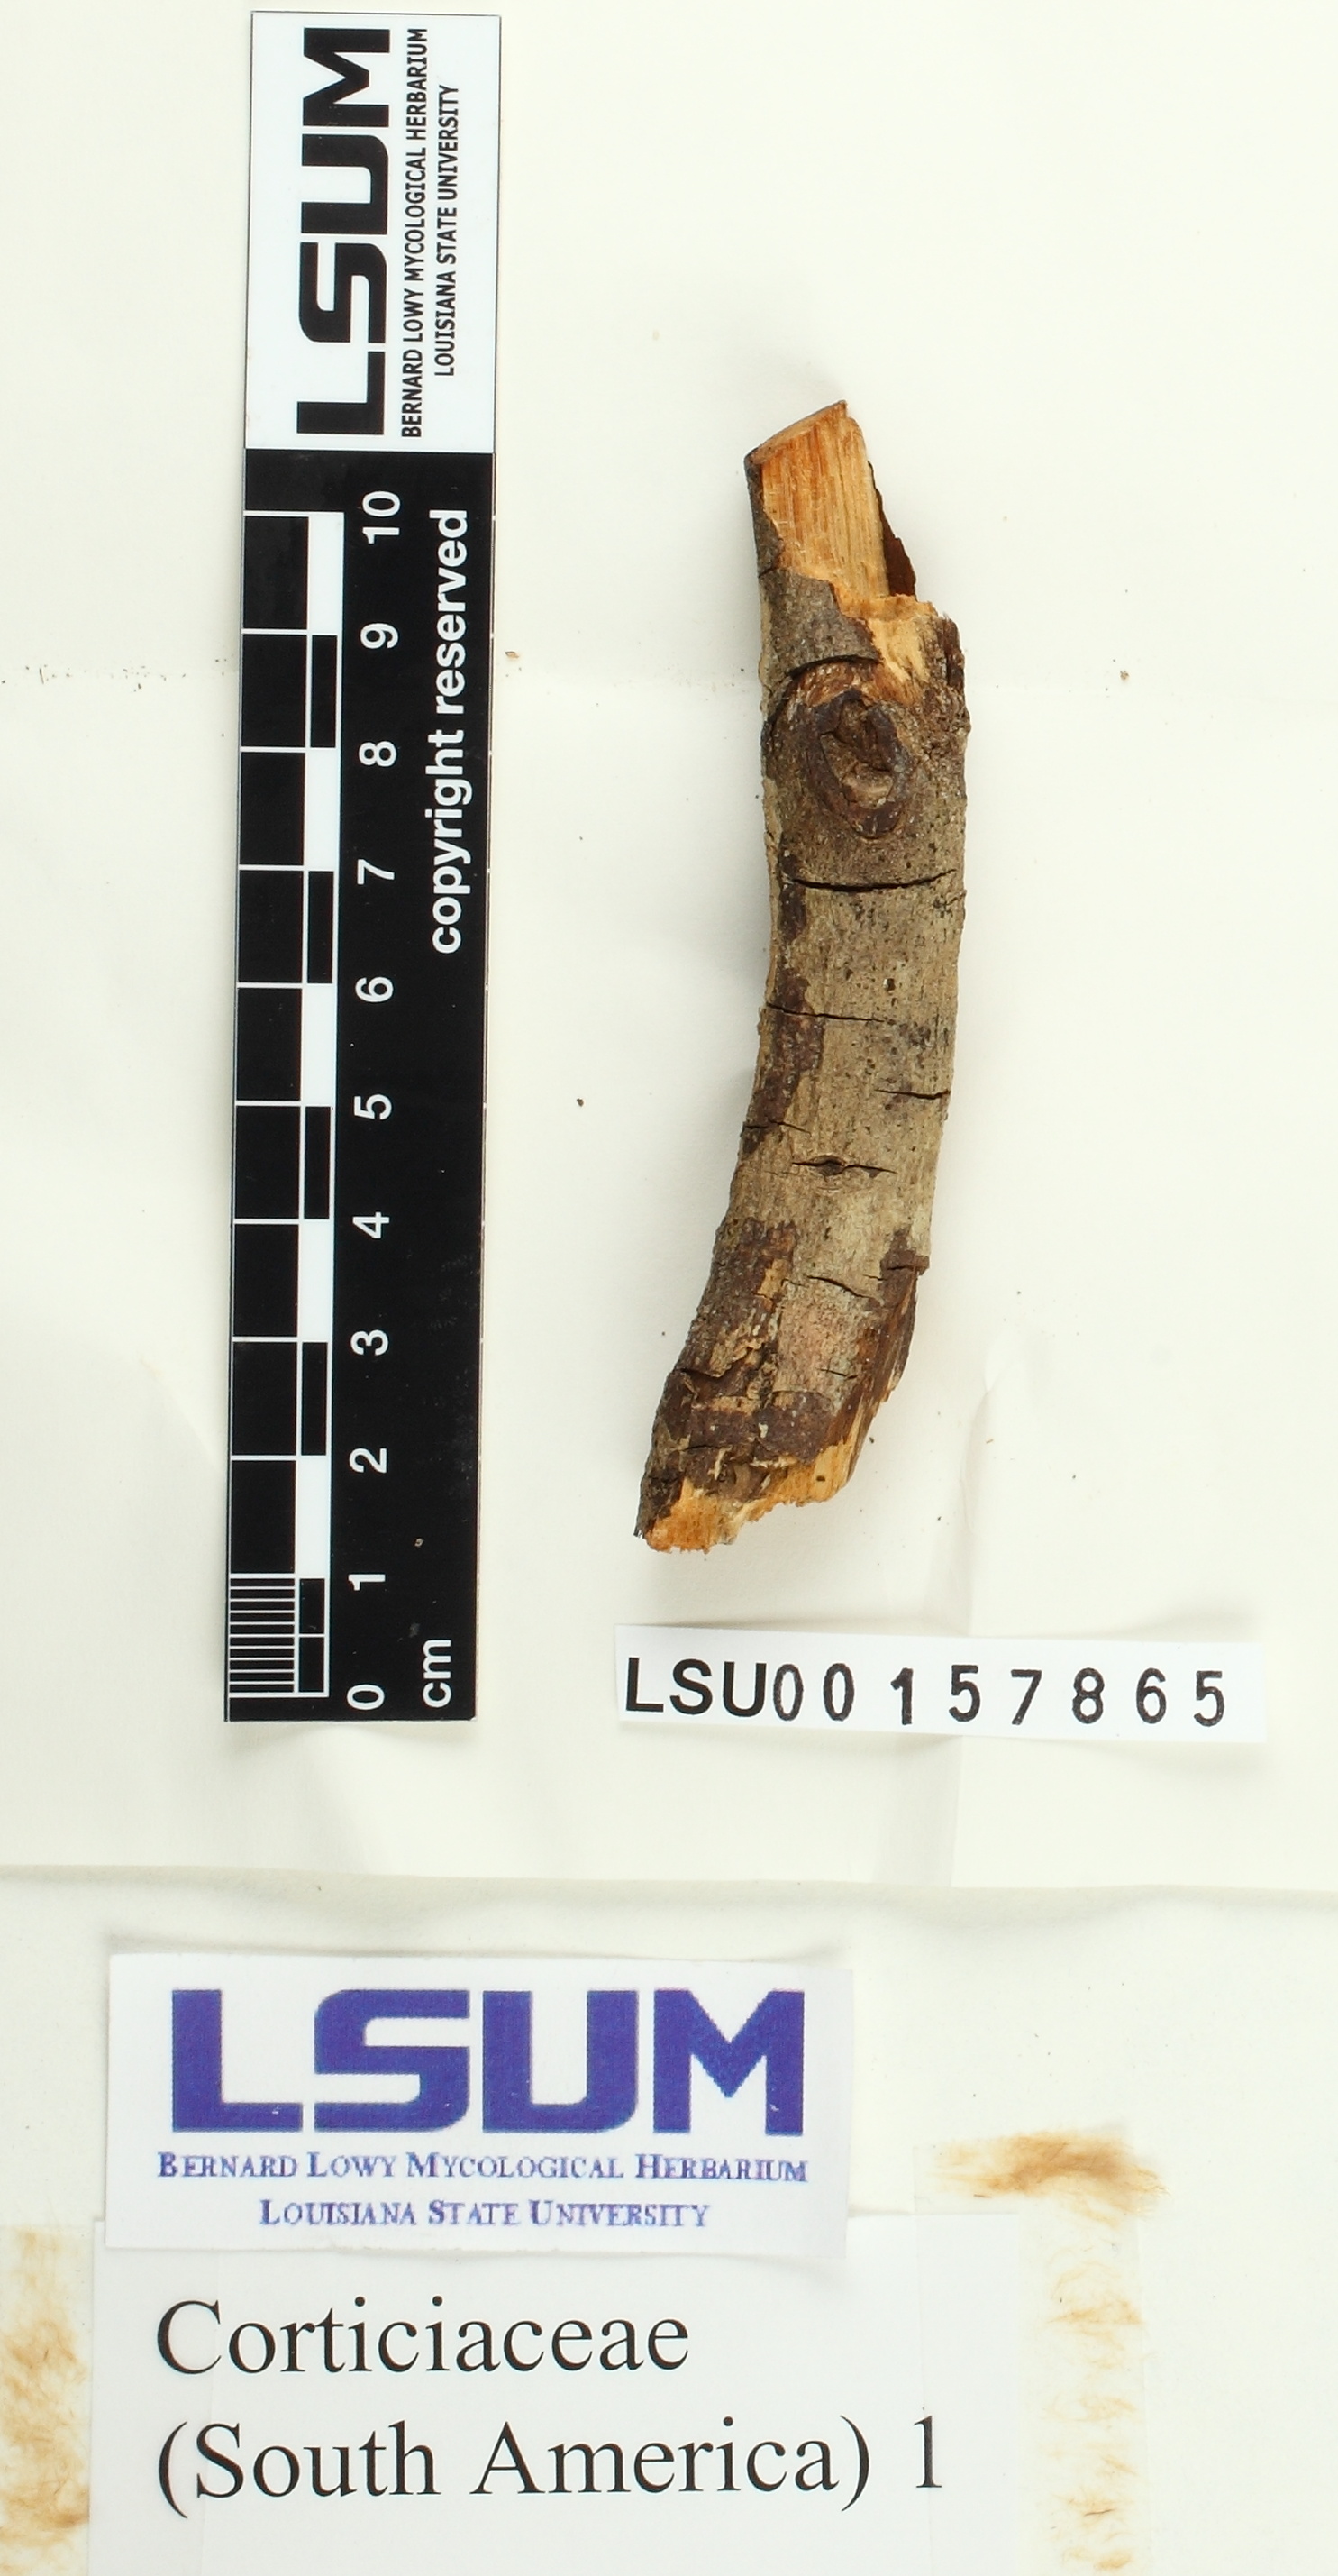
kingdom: Fungi
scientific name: Fungi
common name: Fungi
